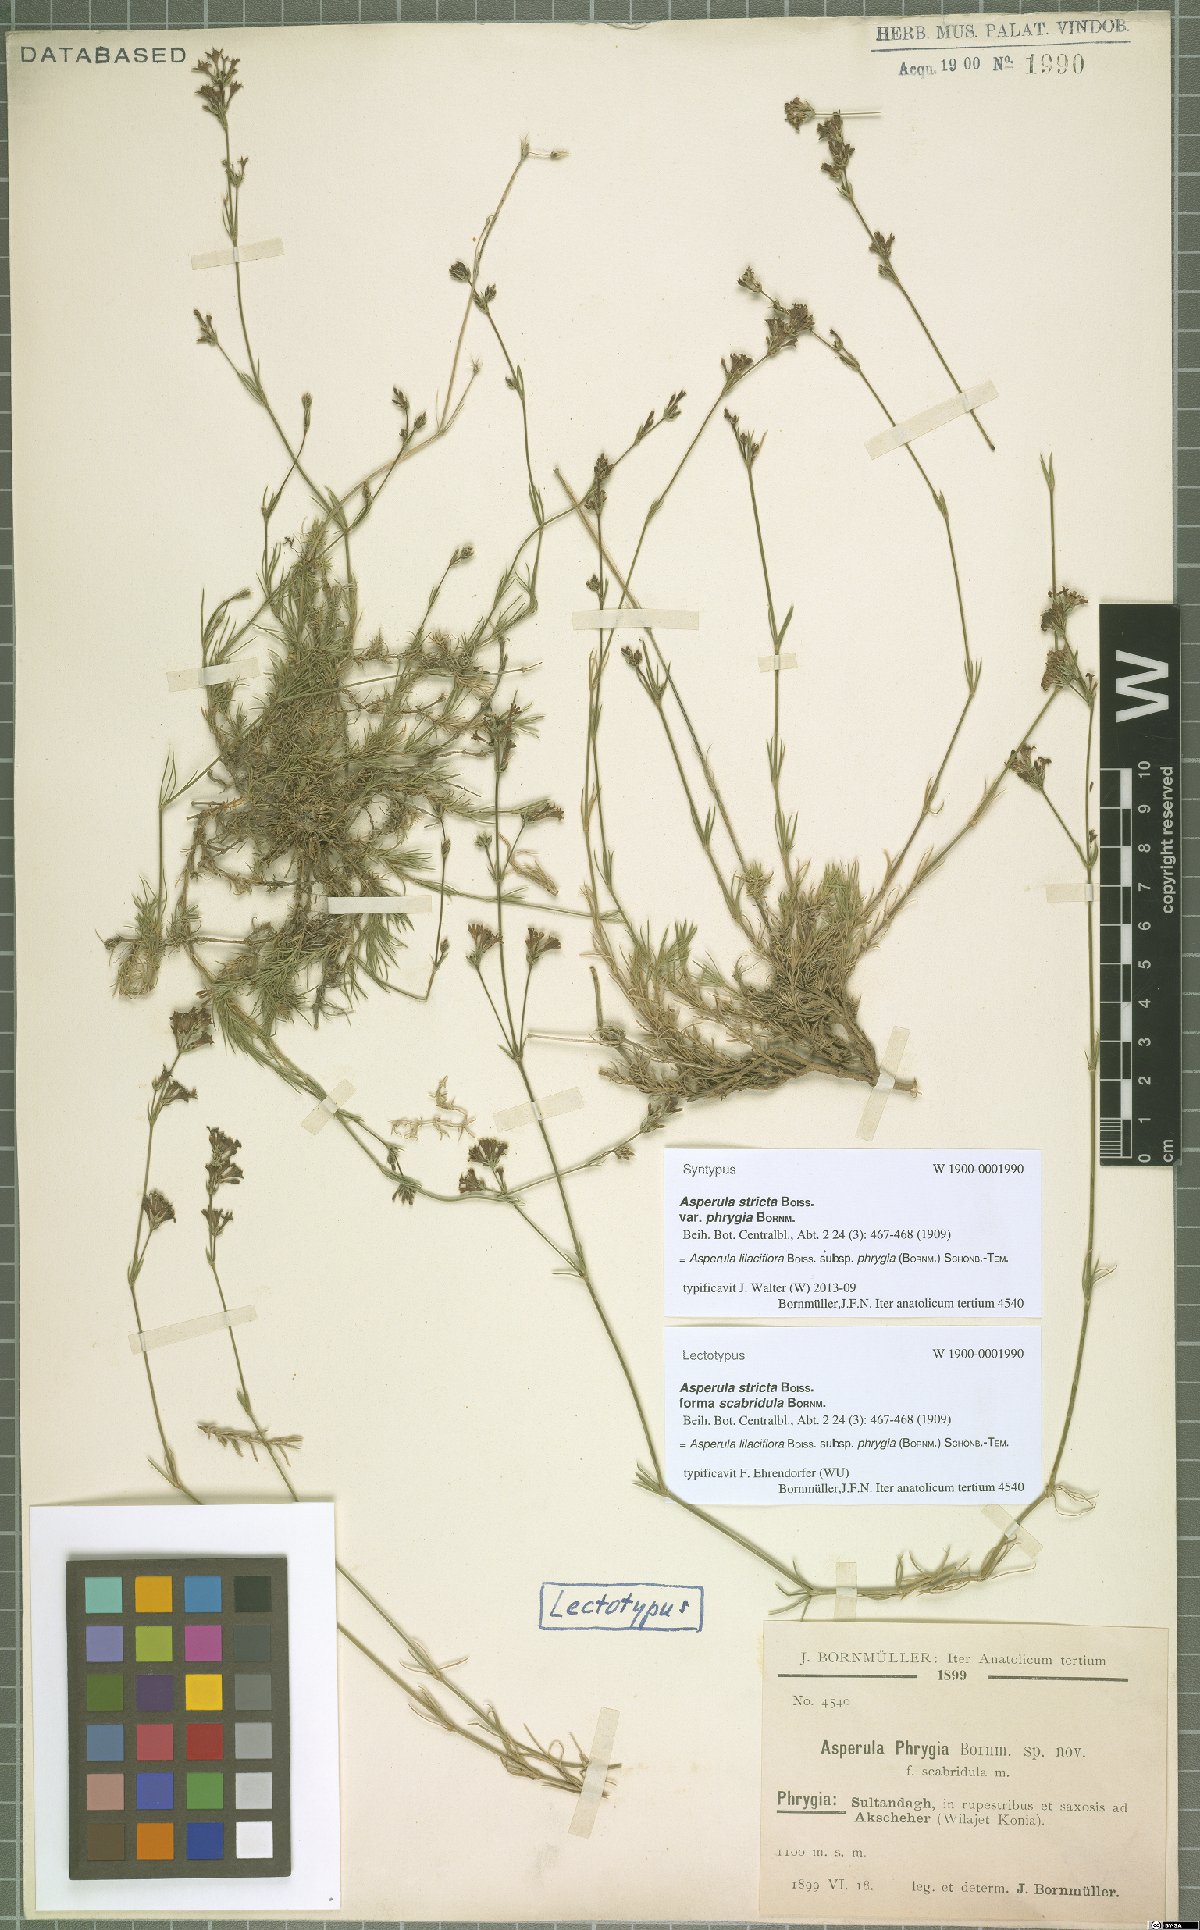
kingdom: Plantae
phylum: Tracheophyta
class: Magnoliopsida
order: Gentianales
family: Rubiaceae
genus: Cynanchica
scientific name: Cynanchica lilaciflora
